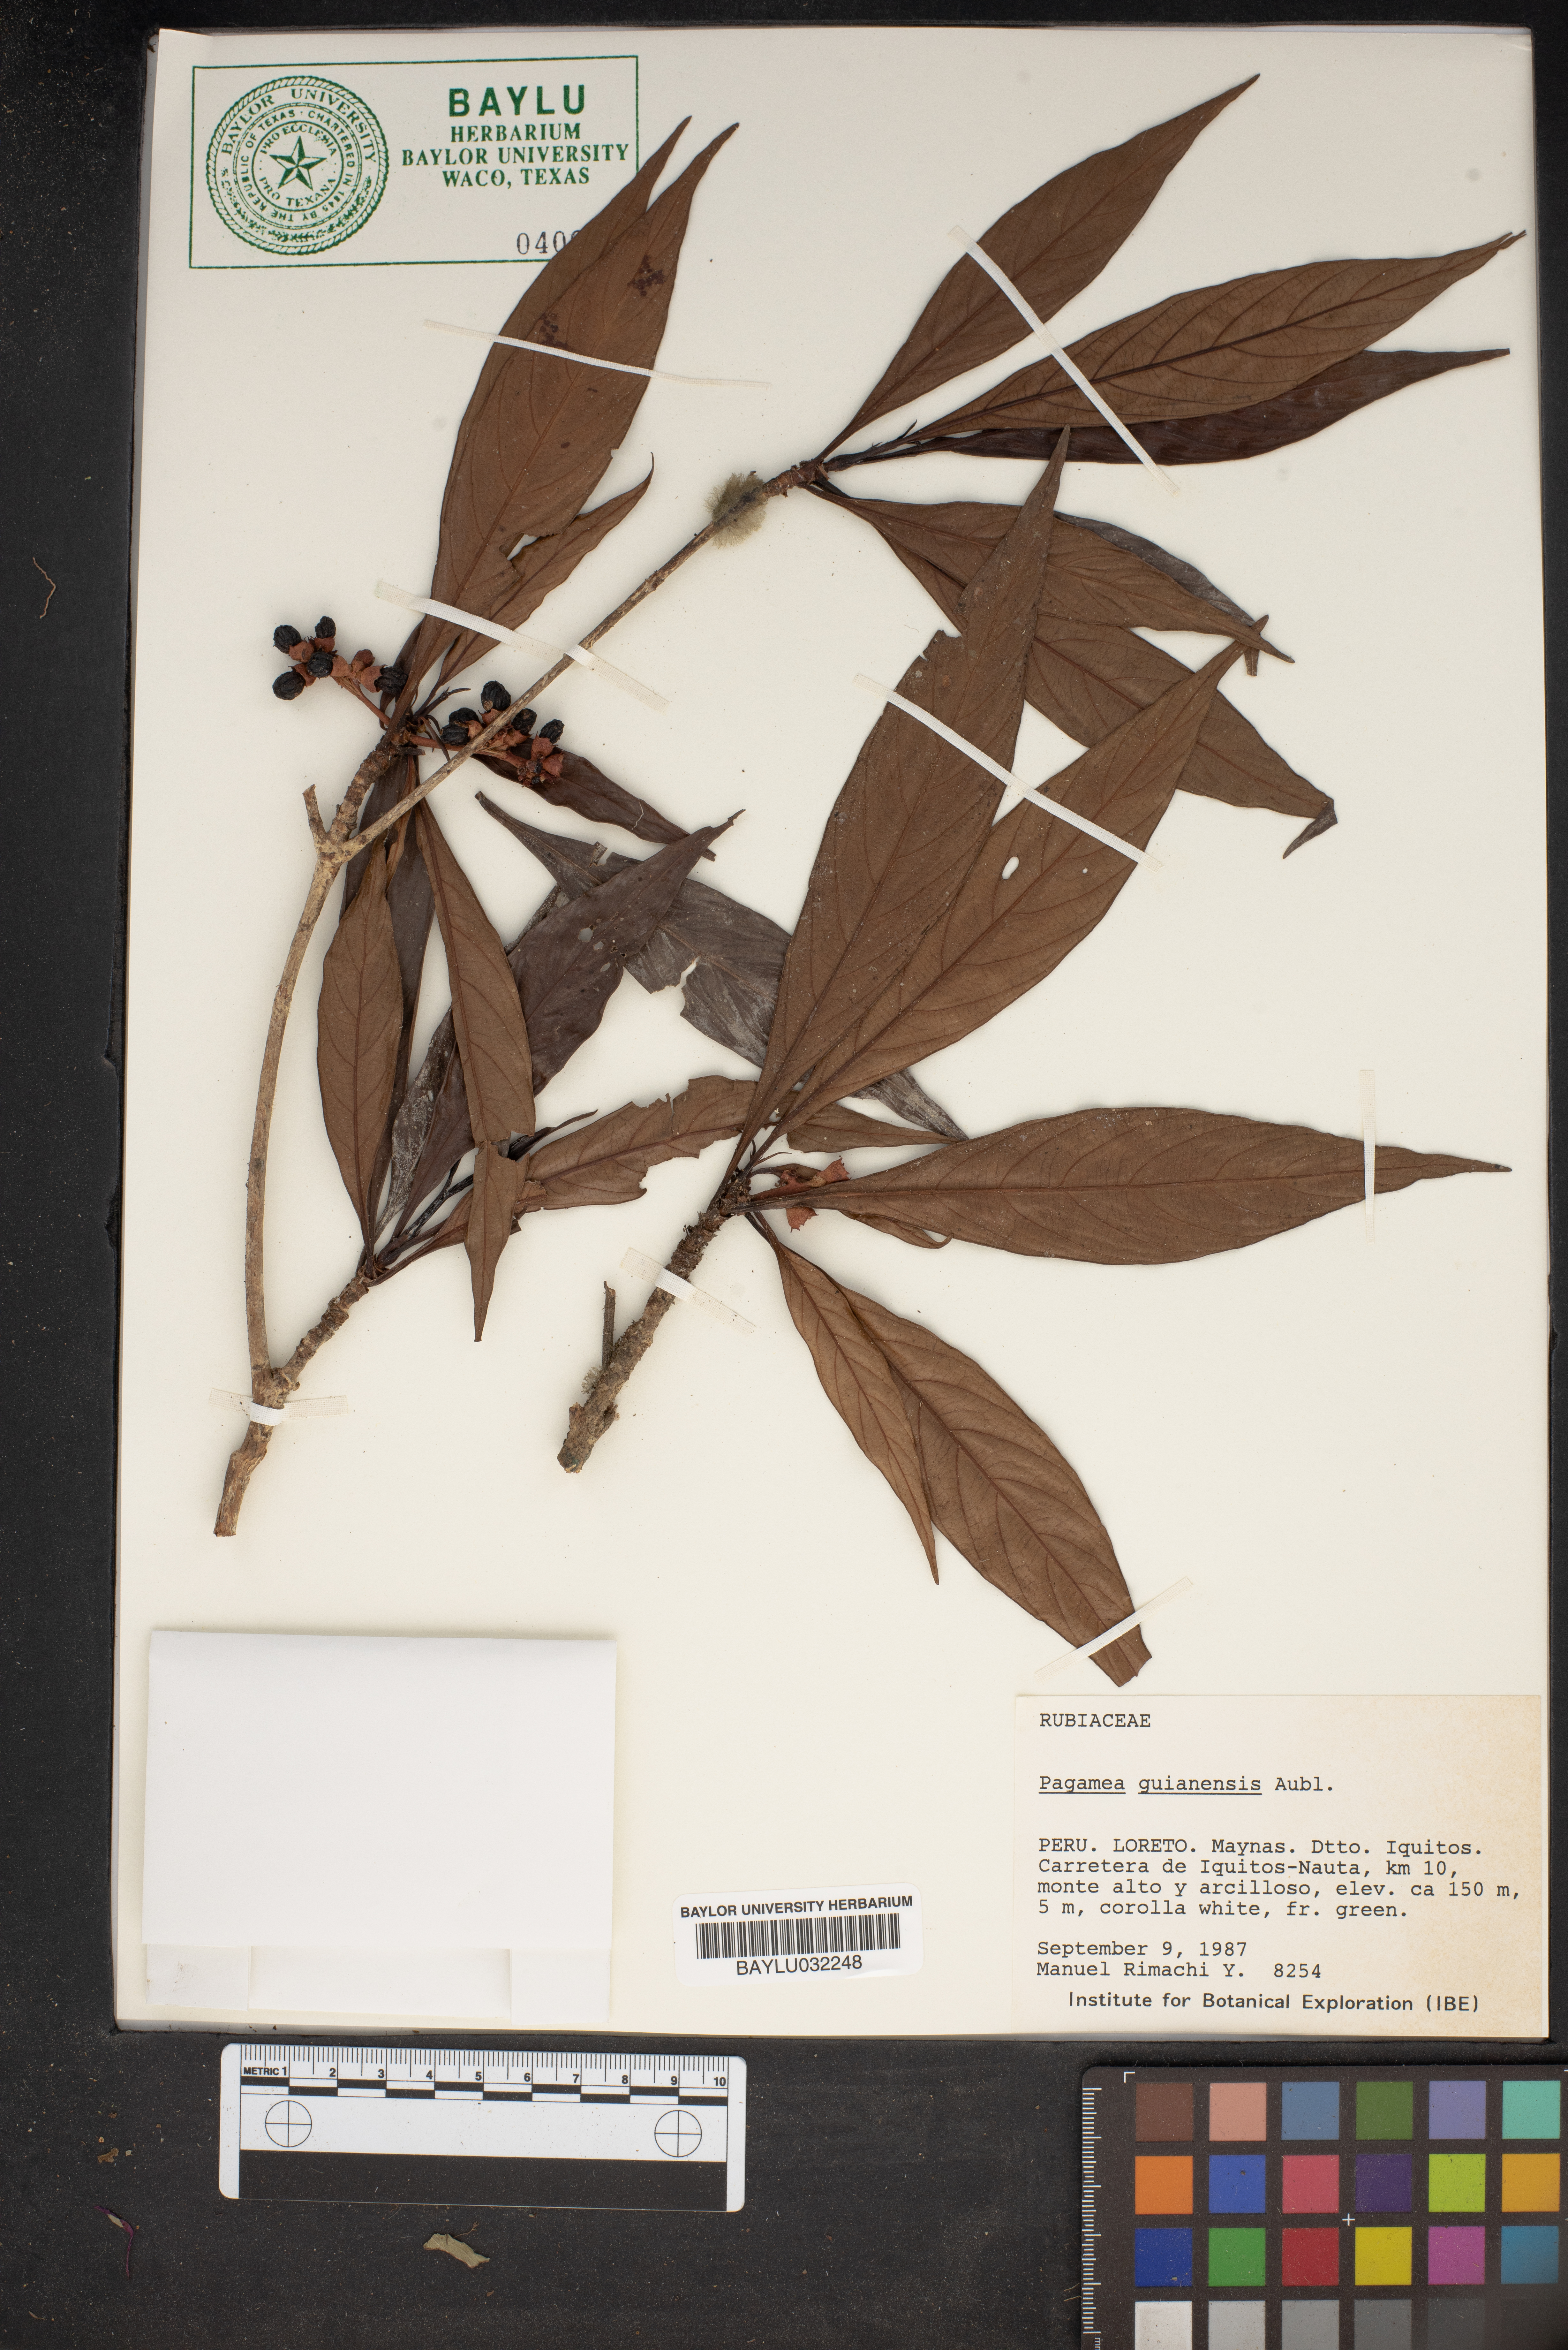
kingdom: Plantae
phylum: Tracheophyta
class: Magnoliopsida
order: Gentianales
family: Rubiaceae
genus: Pagamea
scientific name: Pagamea guianensis
